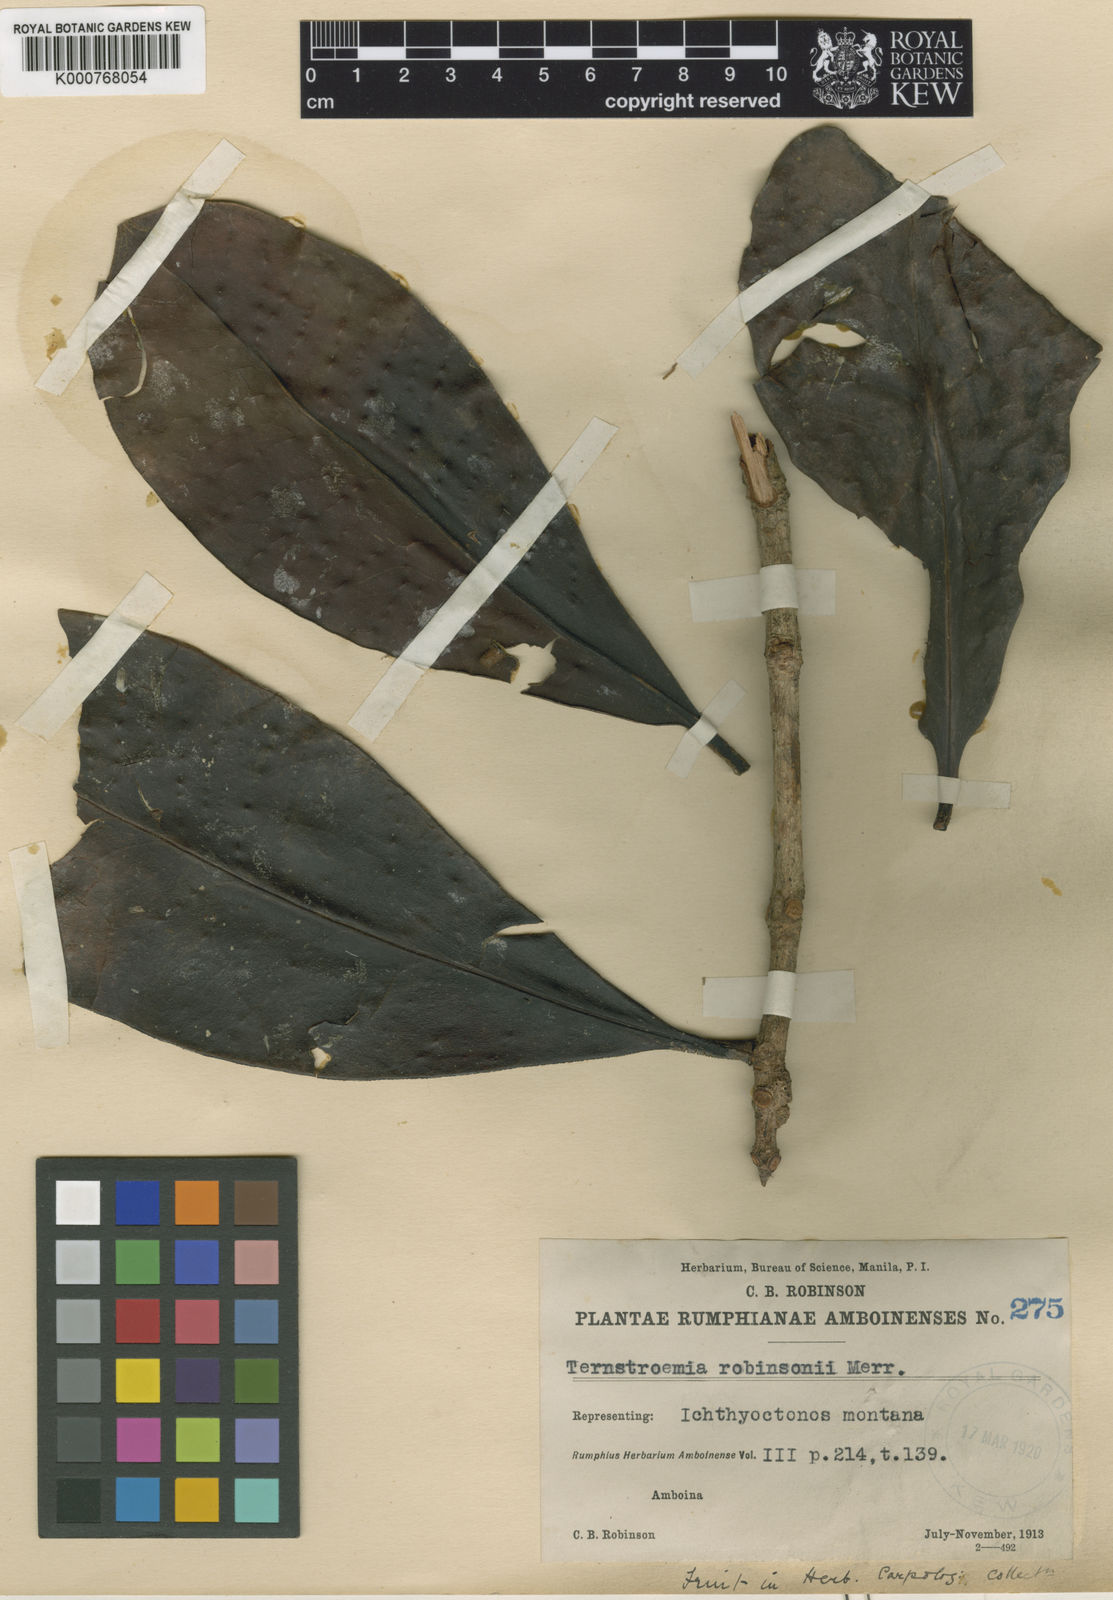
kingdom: Plantae
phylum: Tracheophyta
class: Magnoliopsida
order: Ericales
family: Pentaphylacaceae
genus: Ternstroemia
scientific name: Ternstroemia robinsonii
